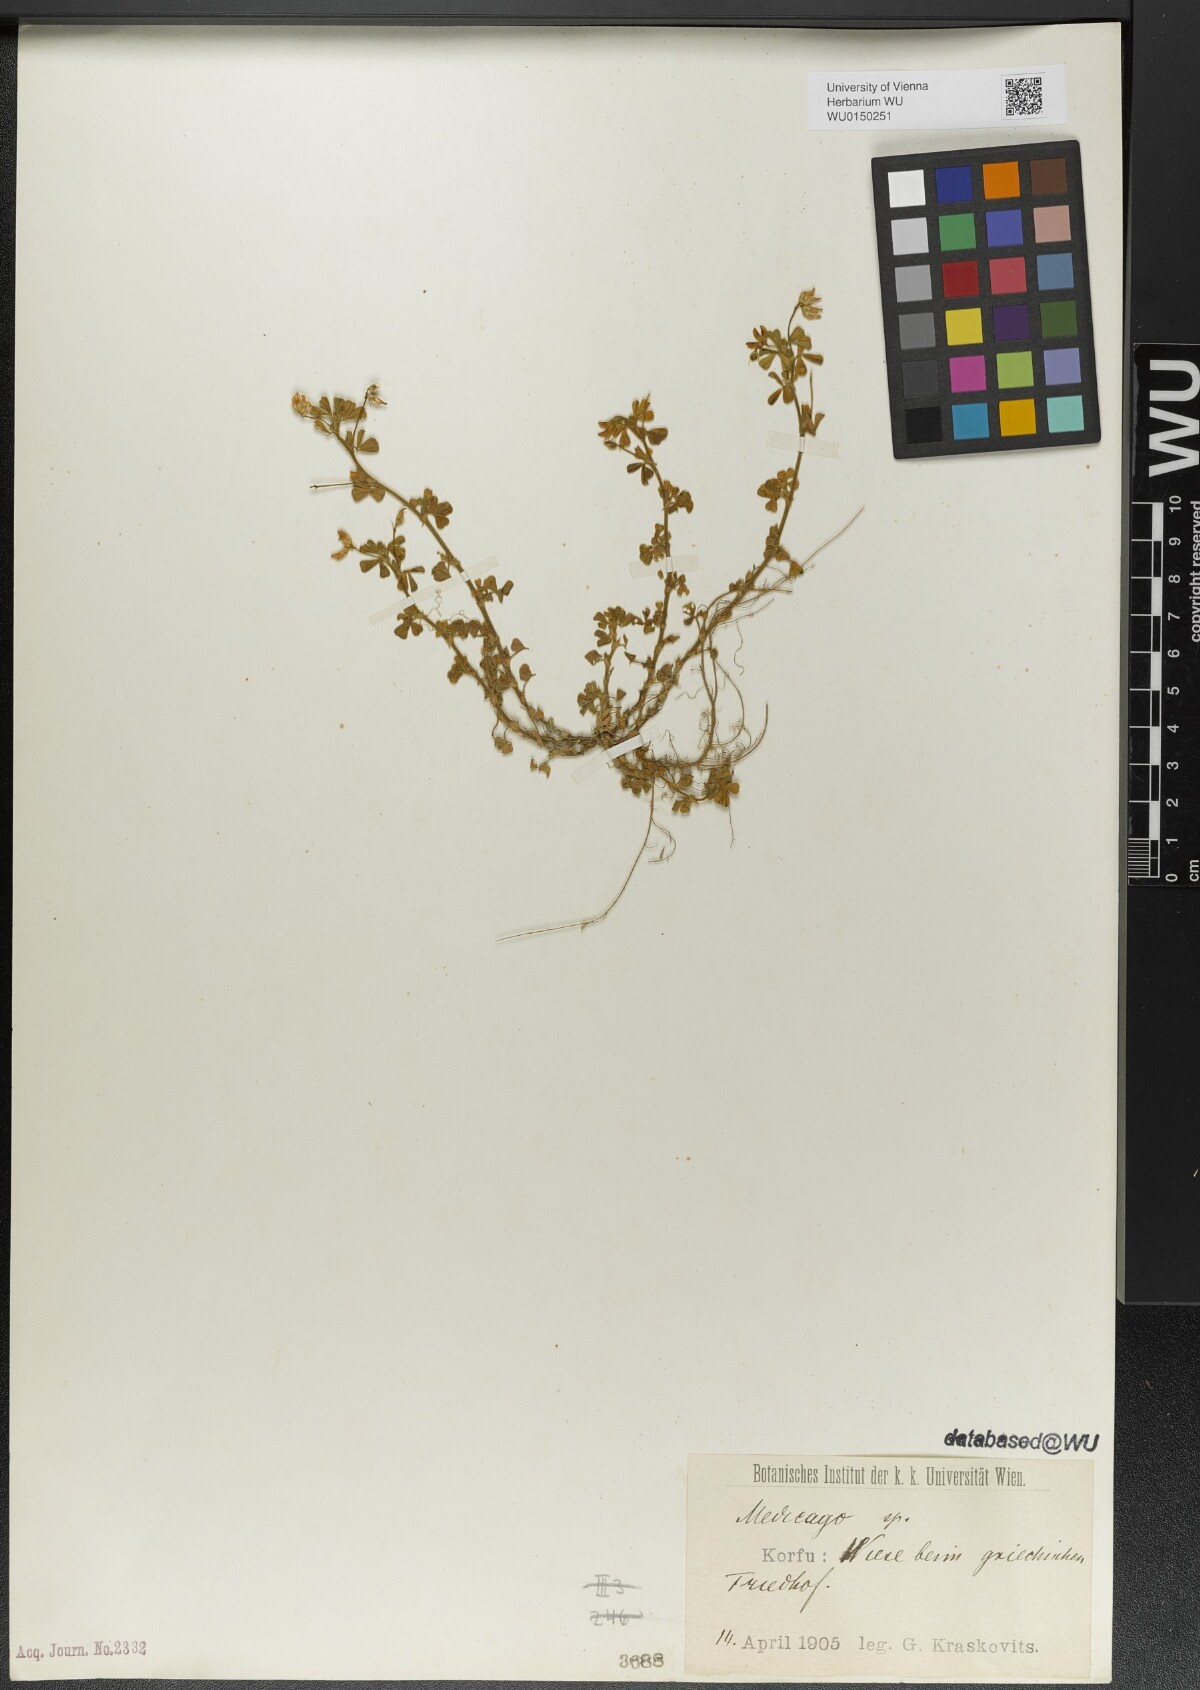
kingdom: Plantae
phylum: Tracheophyta
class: Magnoliopsida
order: Fabales
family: Fabaceae
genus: Medicago
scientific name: Medicago
